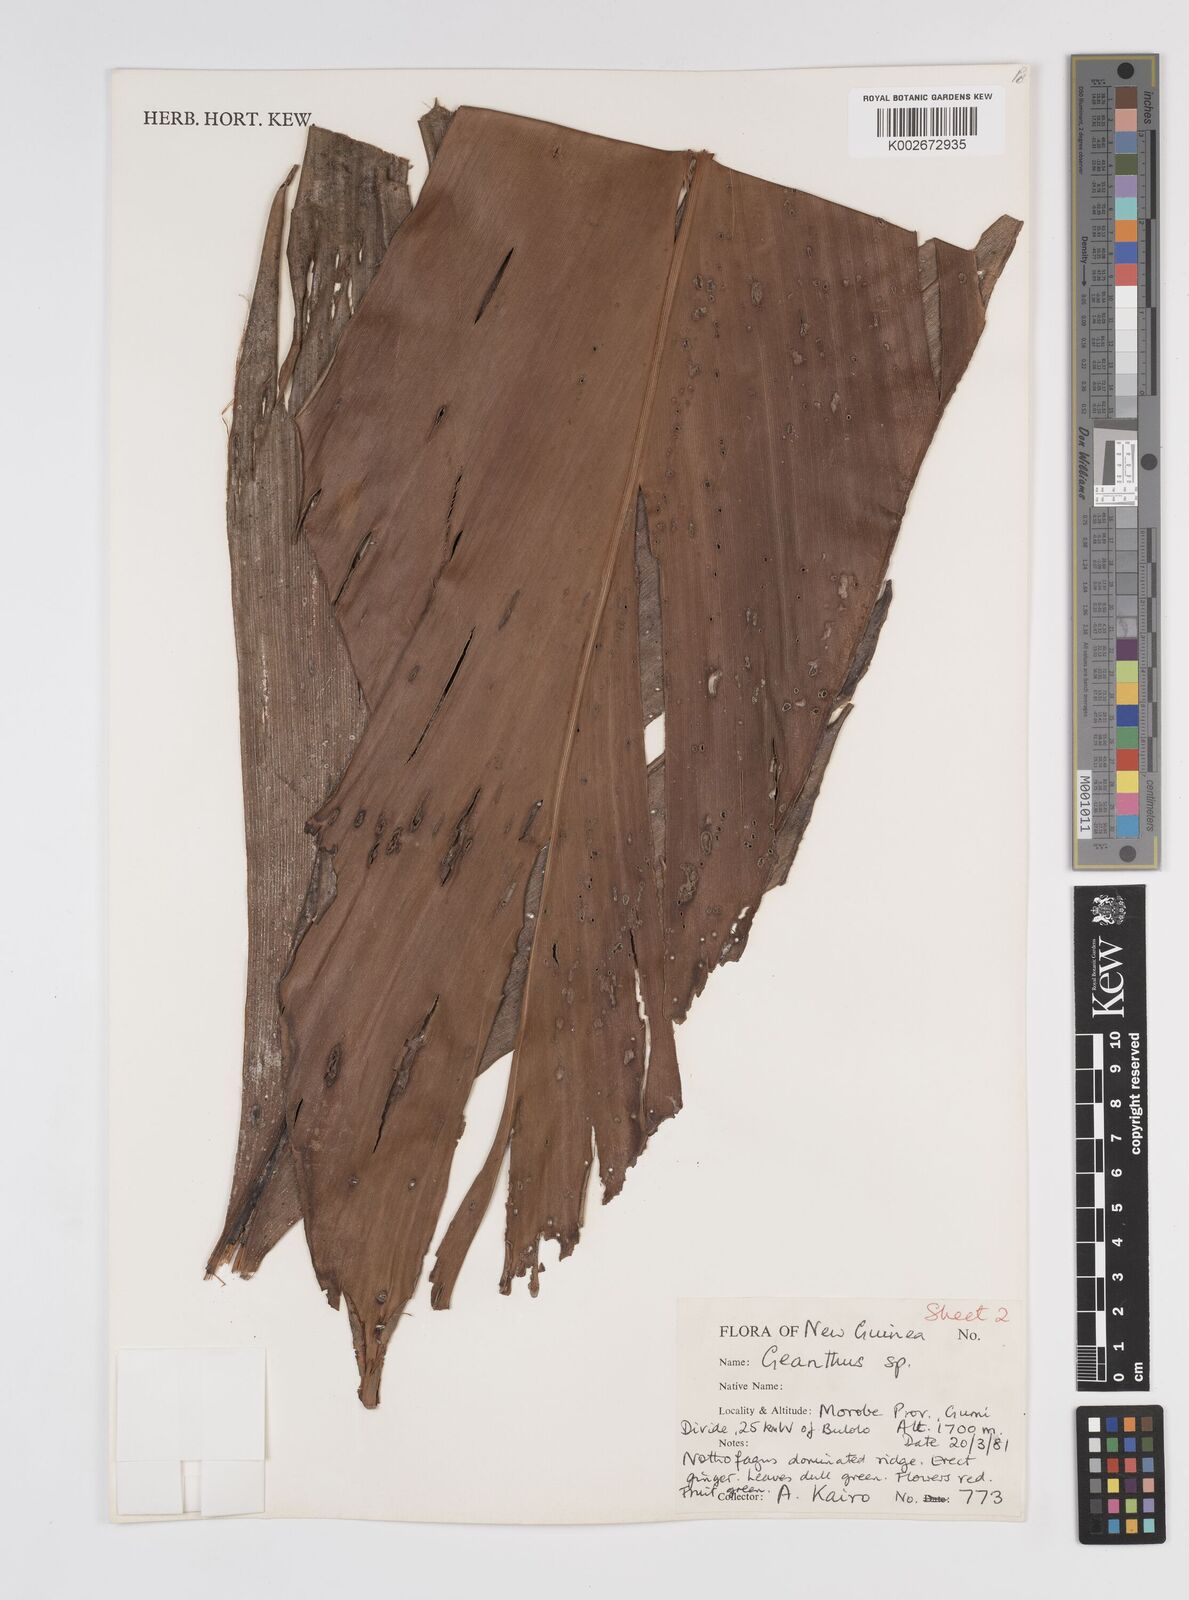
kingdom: Plantae
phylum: Tracheophyta
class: Liliopsida
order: Zingiberales
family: Zingiberaceae
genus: Etlingera
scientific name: Etlingera
